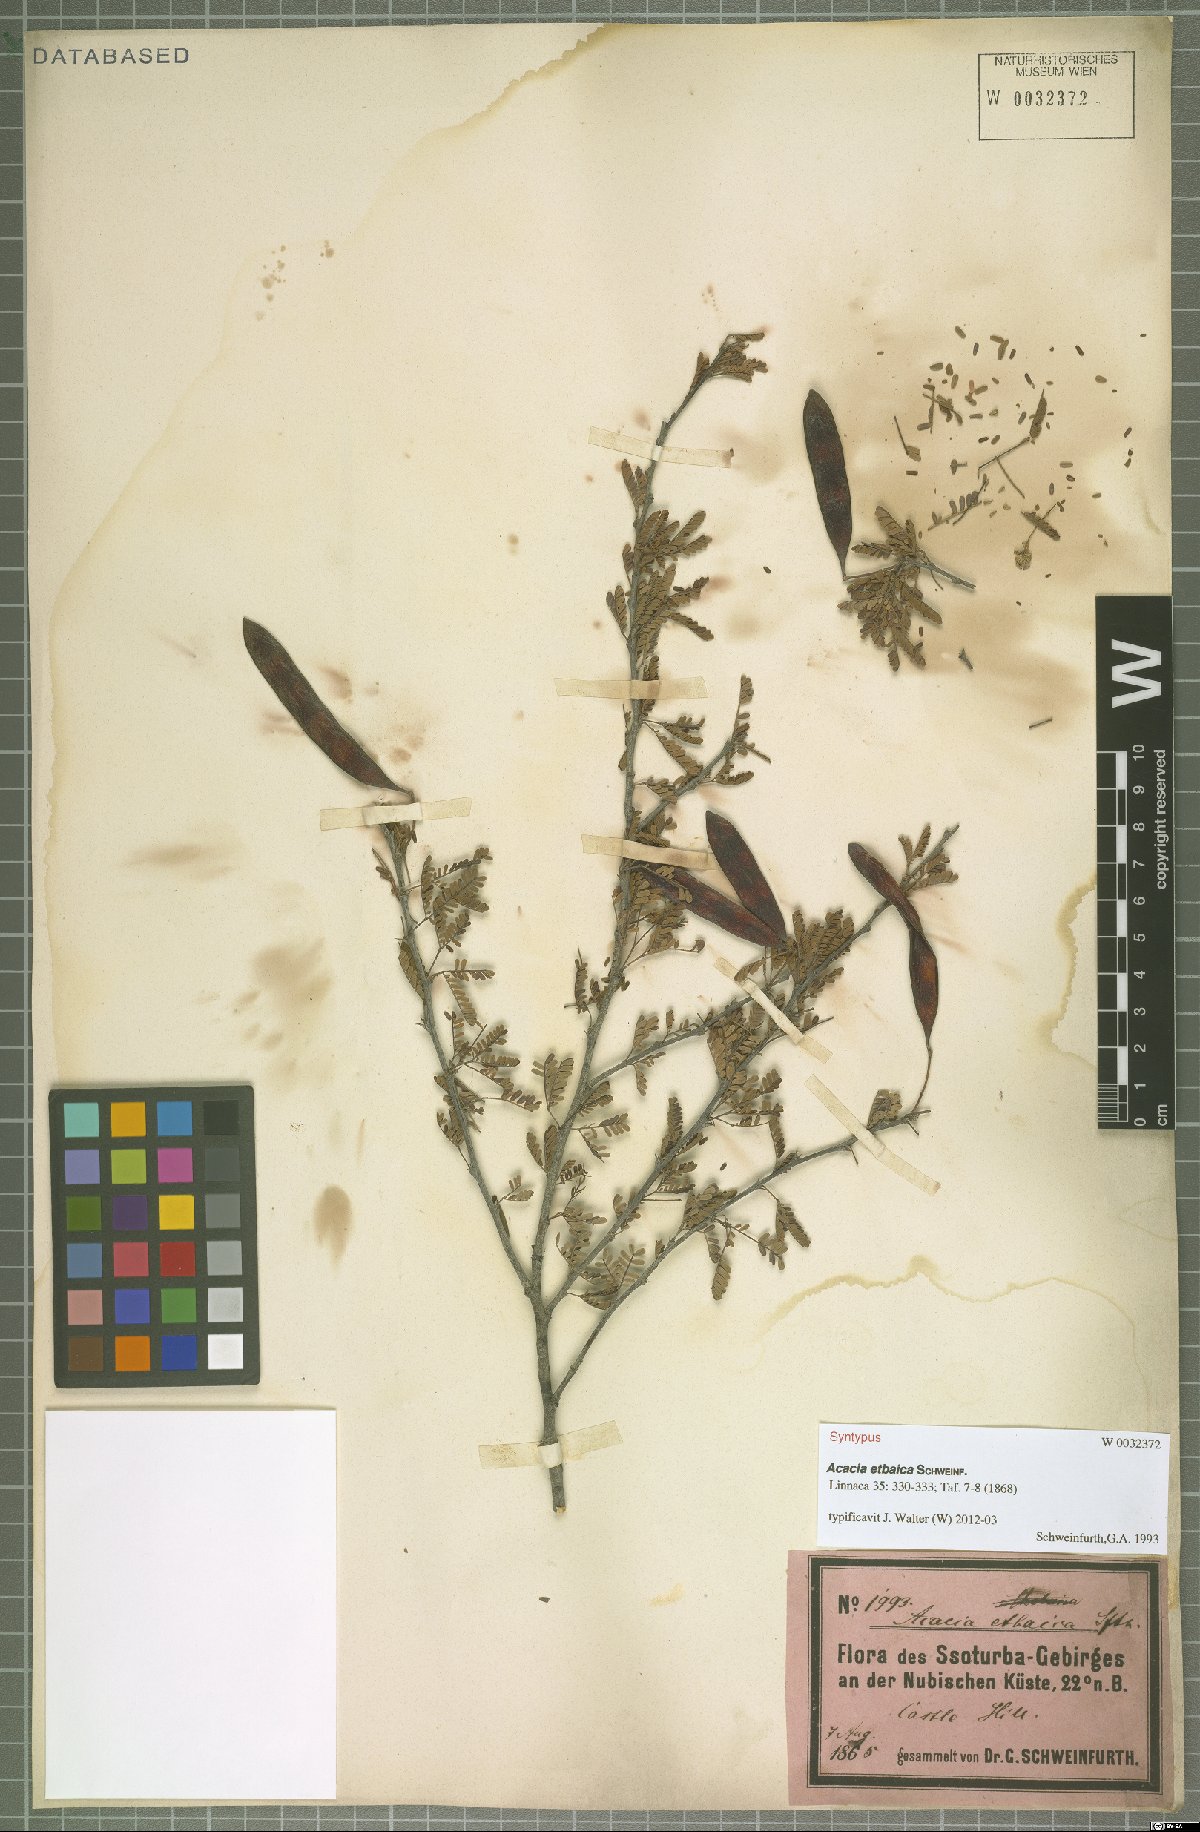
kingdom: Plantae
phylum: Tracheophyta
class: Magnoliopsida
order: Fabales
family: Fabaceae
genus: Vachellia
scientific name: Vachellia etbaica
